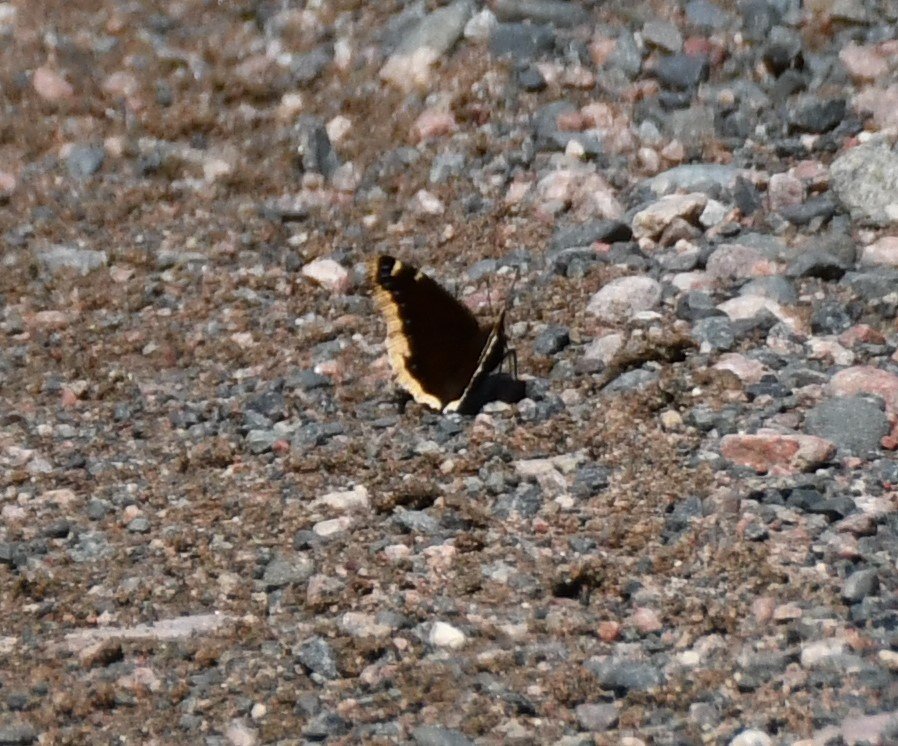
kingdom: Animalia
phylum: Arthropoda
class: Insecta
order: Lepidoptera
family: Nymphalidae
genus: Nymphalis
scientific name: Nymphalis antiopa
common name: Mourning Cloak
